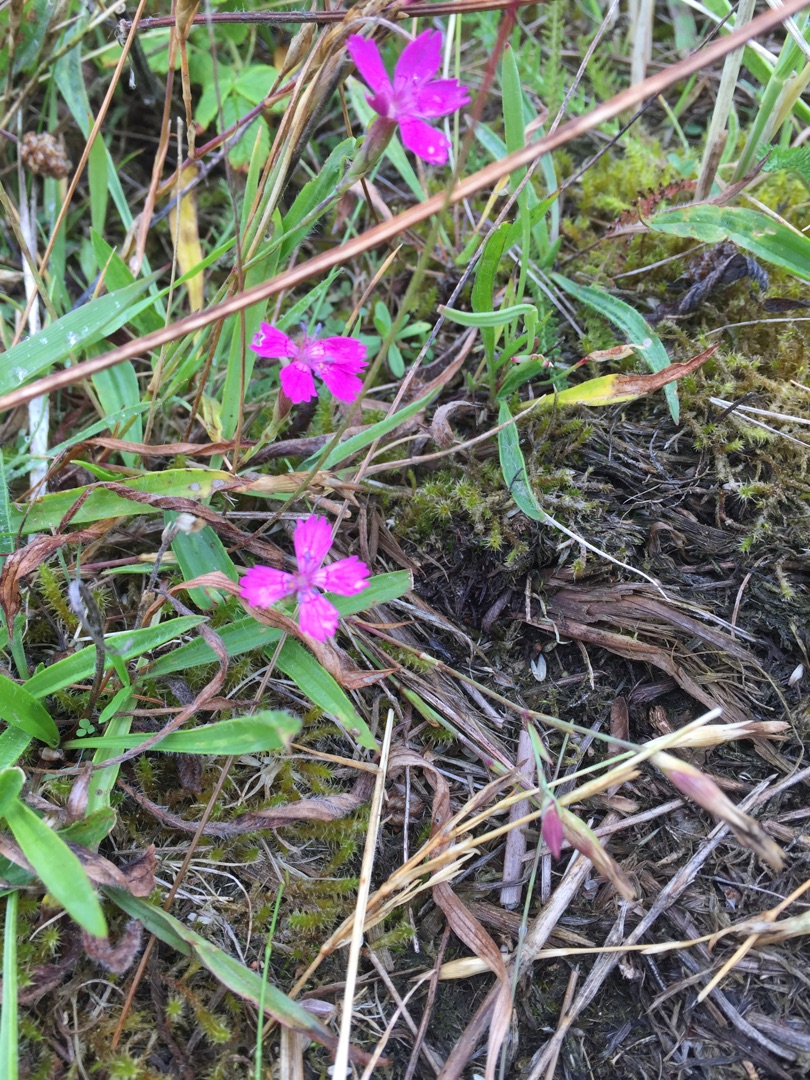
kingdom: Plantae
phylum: Tracheophyta
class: Magnoliopsida
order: Caryophyllales
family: Caryophyllaceae
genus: Dianthus
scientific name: Dianthus deltoides
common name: Bakke-nellike
